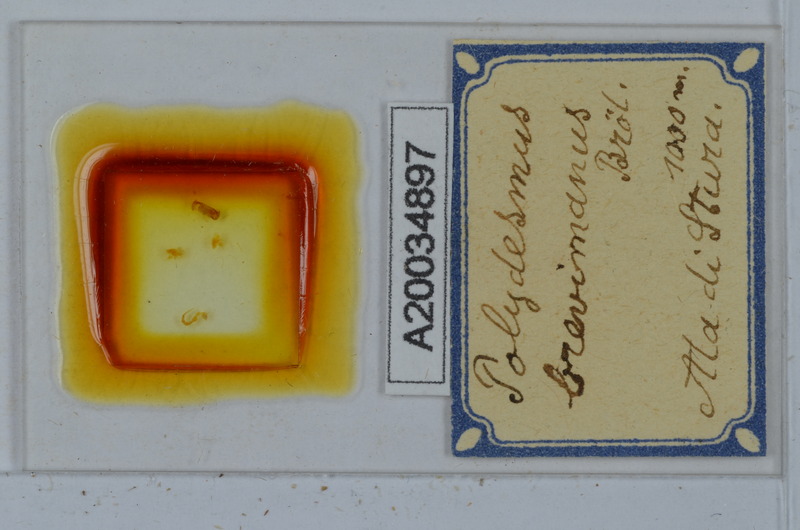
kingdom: Animalia
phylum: Arthropoda
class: Diplopoda
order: Polydesmida
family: Polydesmidae
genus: Polydesmus
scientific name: Polydesmus brevimanus
